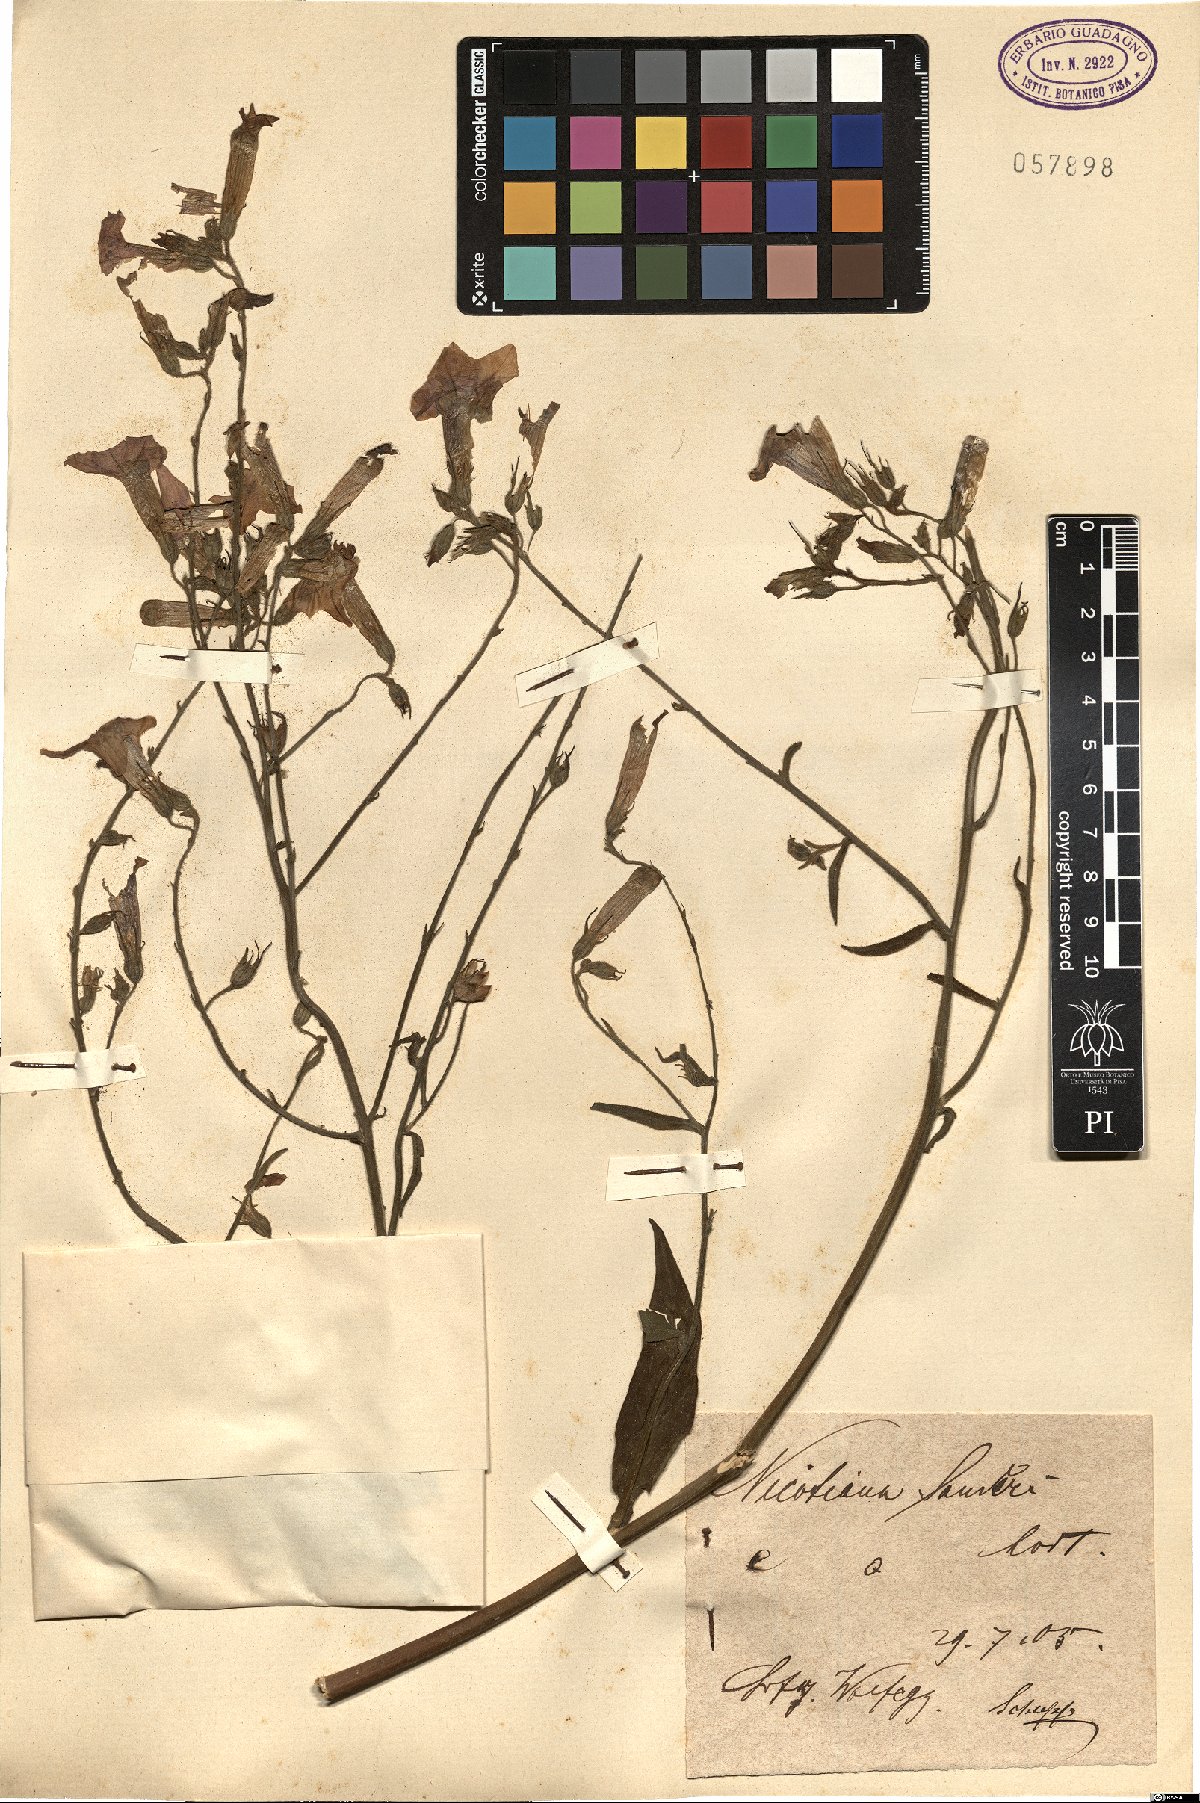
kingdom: Plantae
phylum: Tracheophyta
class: Magnoliopsida
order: Solanales
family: Solanaceae
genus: Nicotiana
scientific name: Nicotiana sanderae
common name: Tobacco
